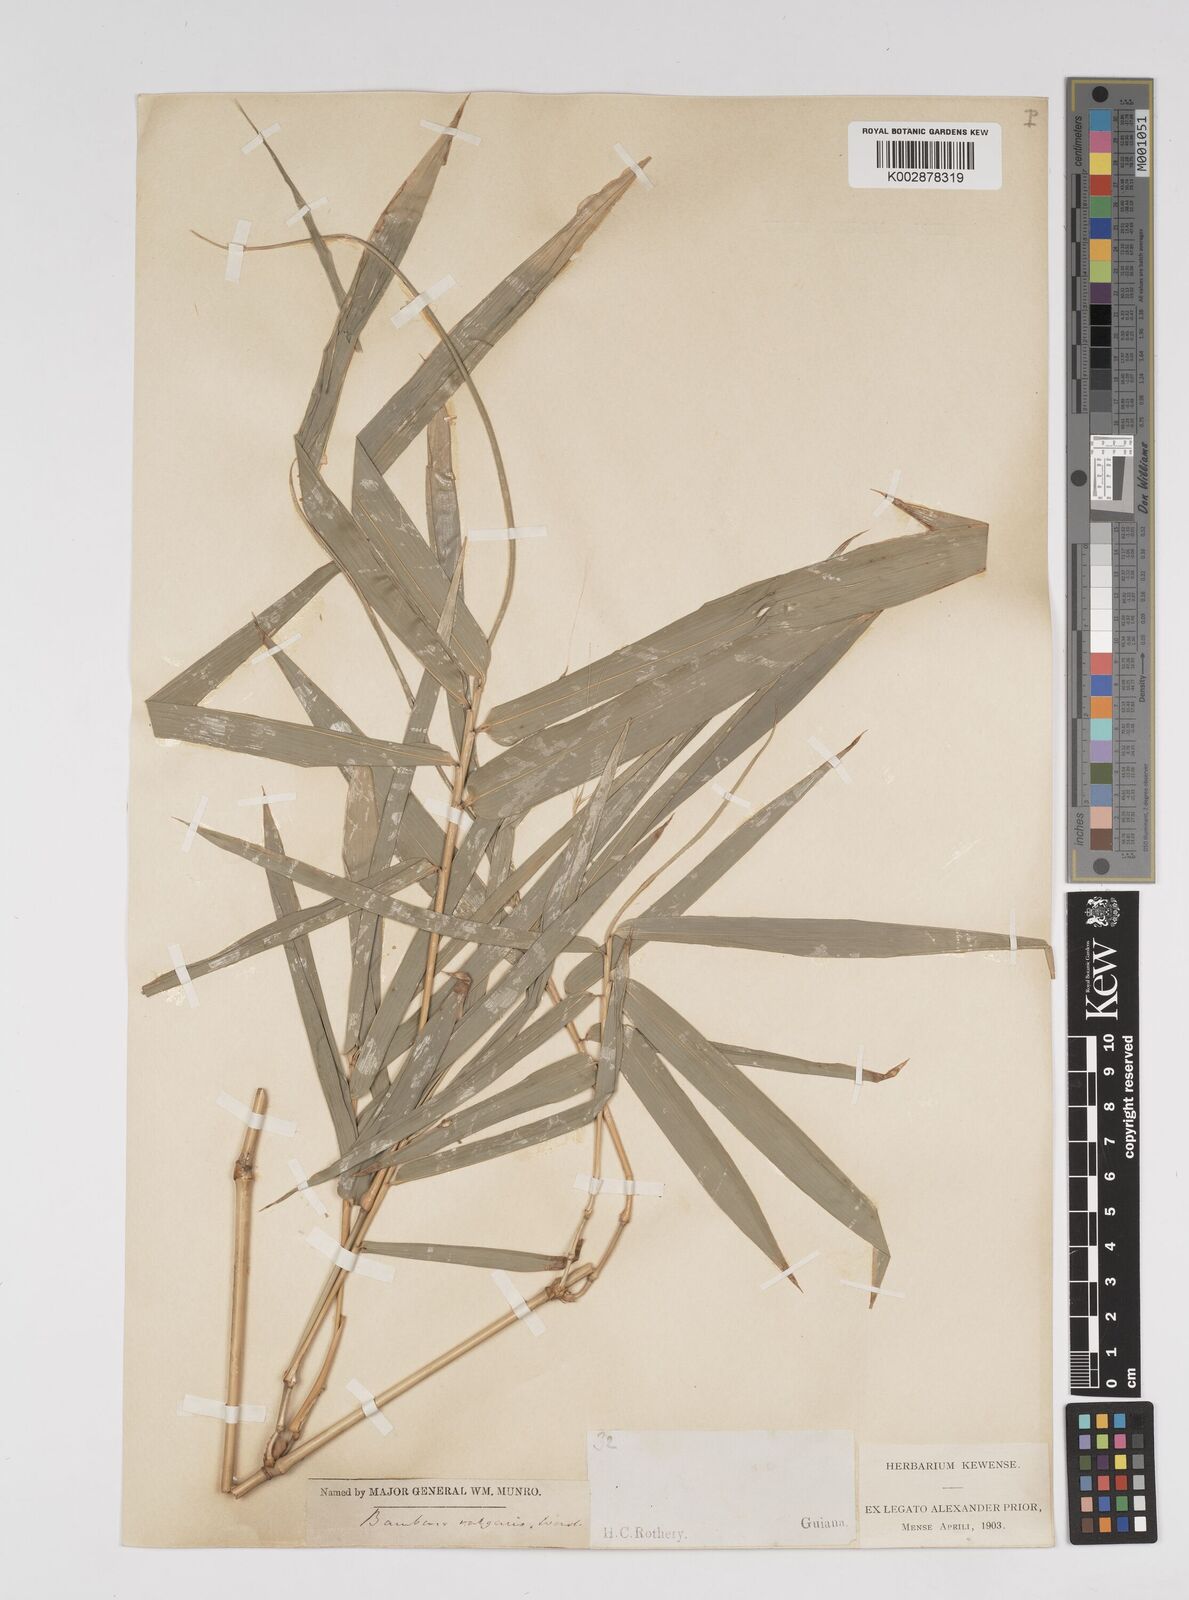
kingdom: Plantae
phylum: Tracheophyta
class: Liliopsida
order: Poales
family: Poaceae
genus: Bambusa
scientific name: Bambusa vulgaris
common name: Common bamboo
